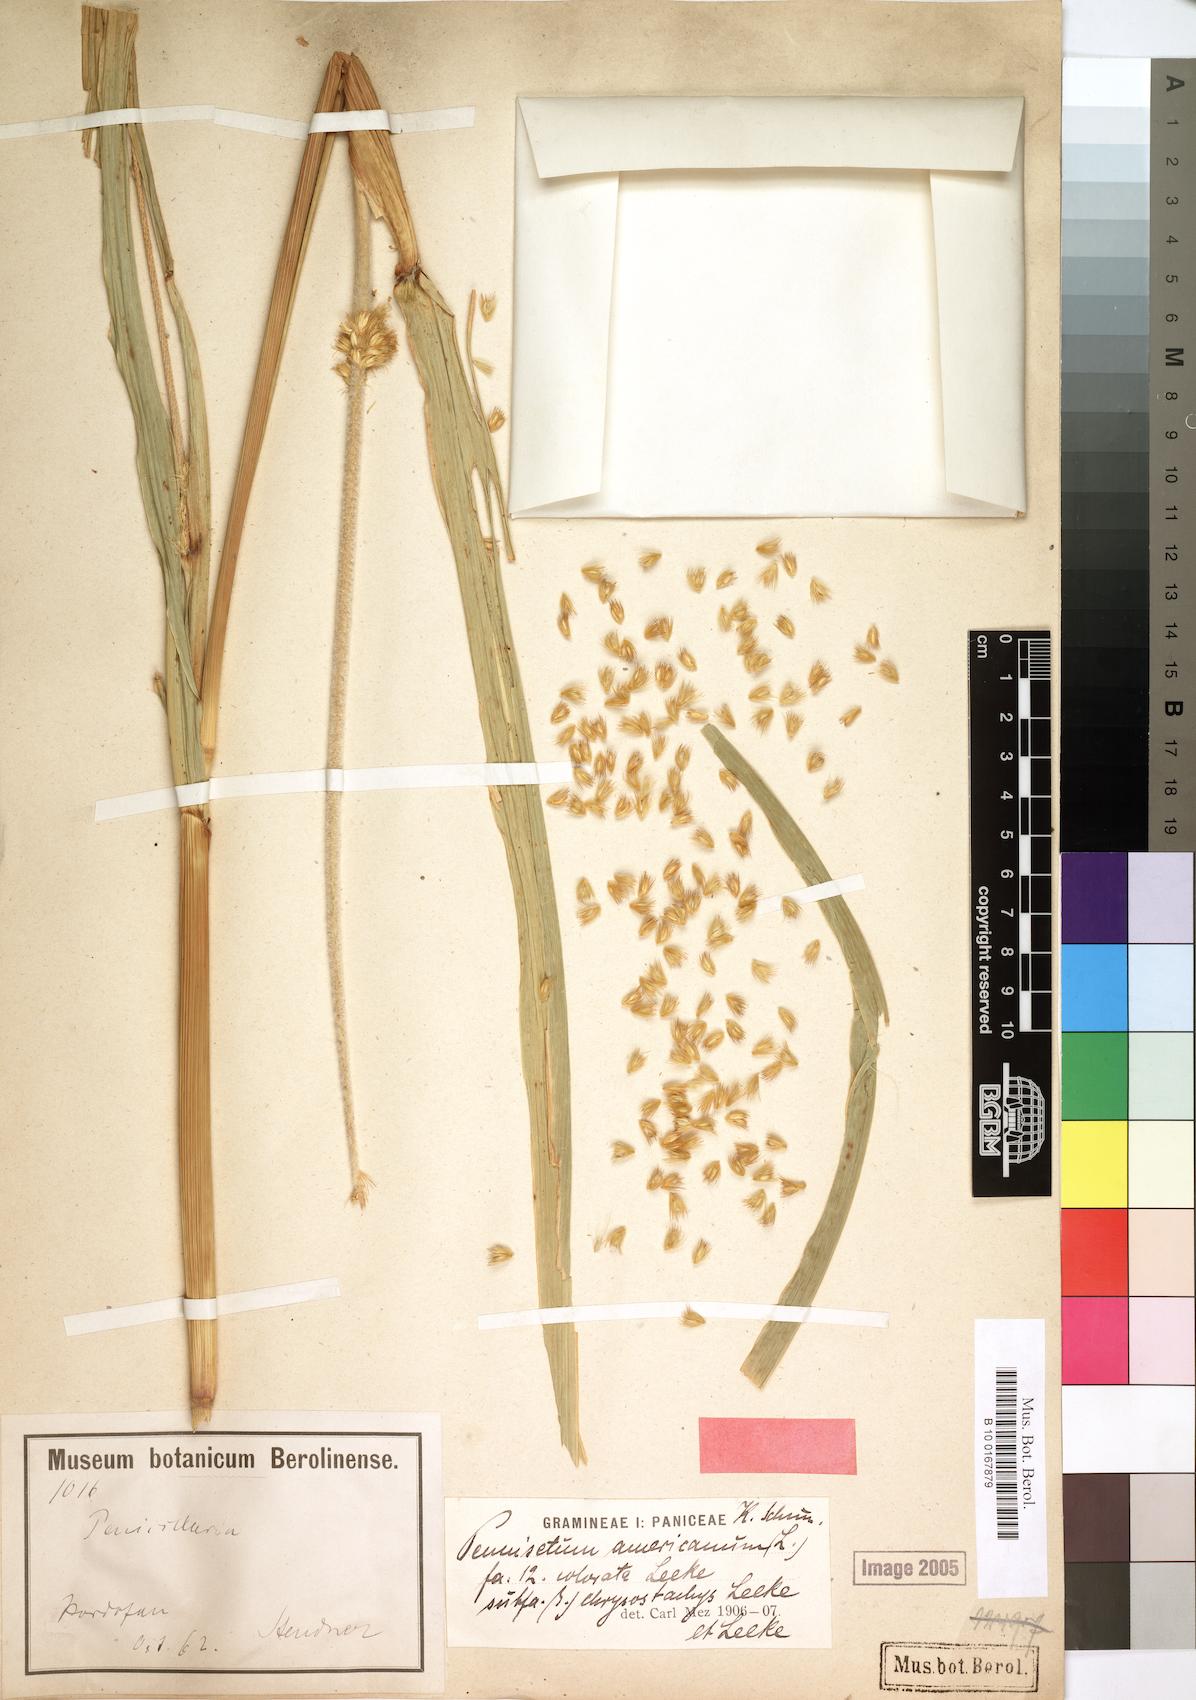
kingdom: Plantae
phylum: Tracheophyta
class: Liliopsida
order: Poales
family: Poaceae
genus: Cenchrus
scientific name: Cenchrus americanus
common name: Pearl millet
